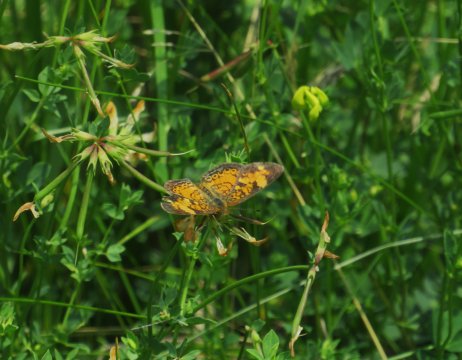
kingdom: Animalia
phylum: Arthropoda
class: Insecta
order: Lepidoptera
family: Nymphalidae
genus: Phyciodes
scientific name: Phyciodes tharos
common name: Pearl Crescent
